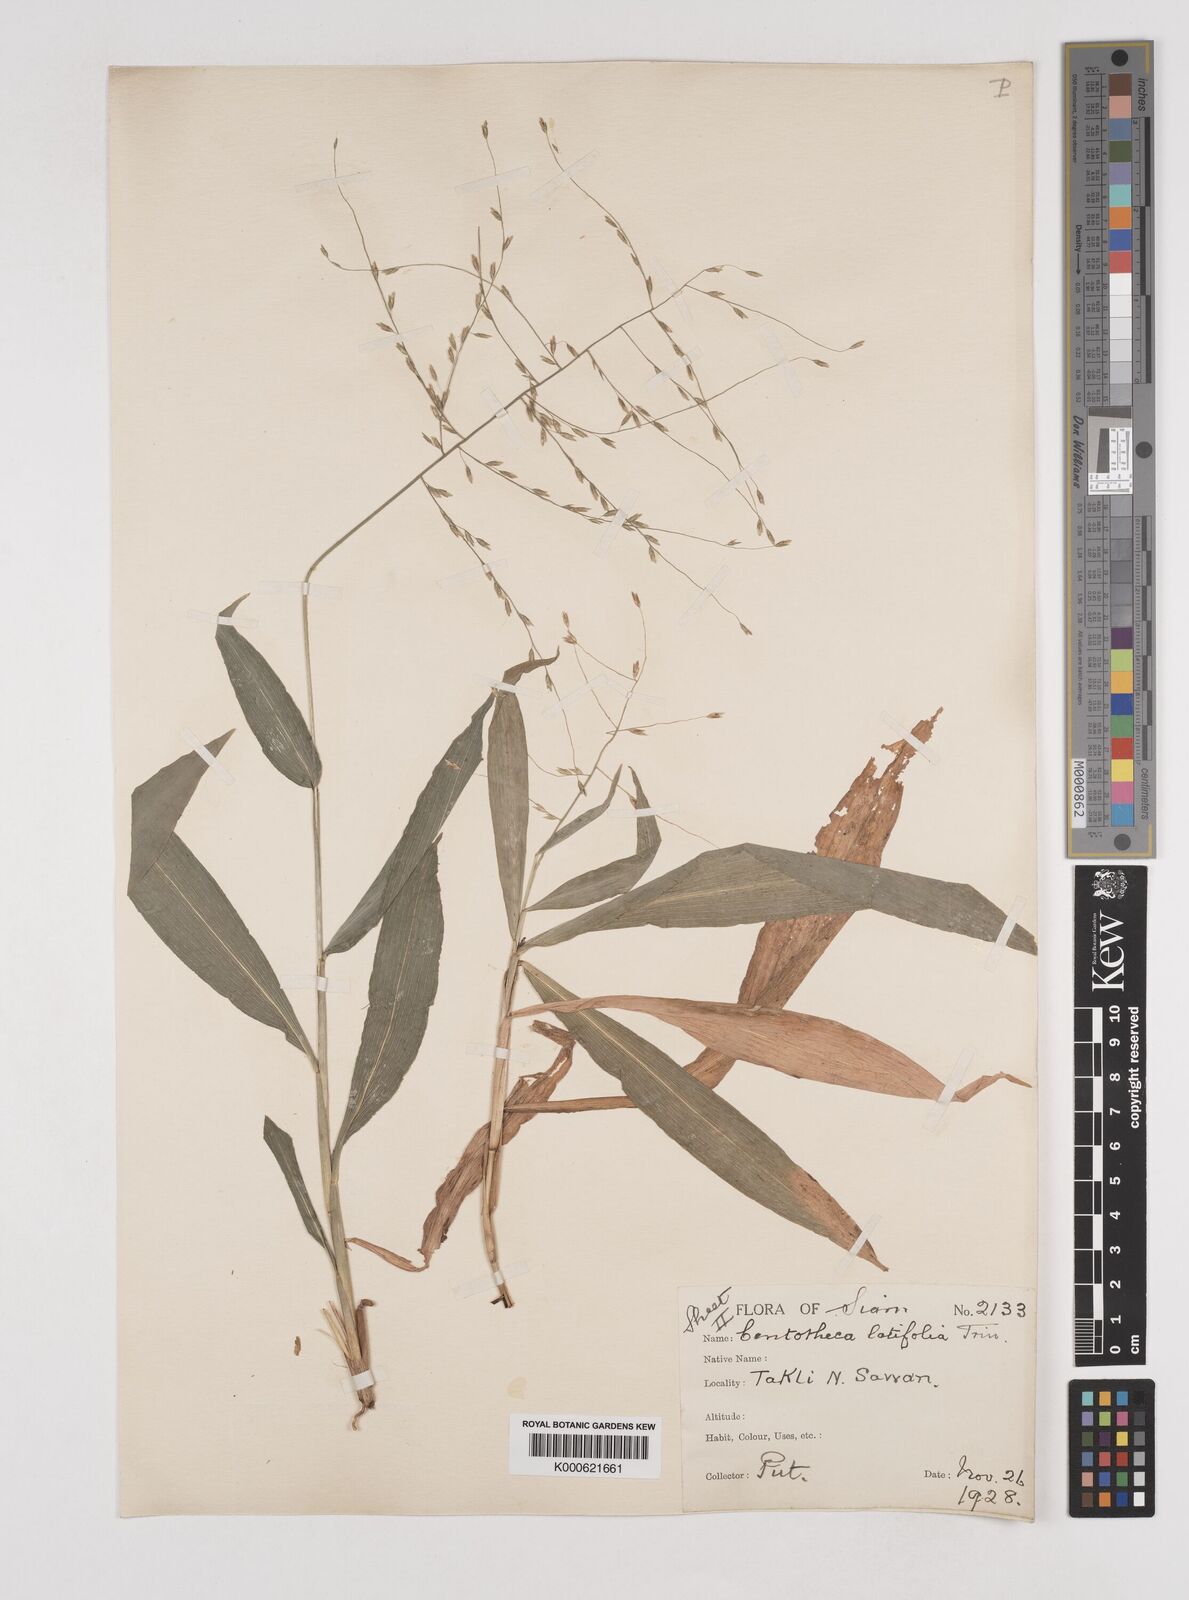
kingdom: Plantae
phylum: Tracheophyta
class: Liliopsida
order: Poales
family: Poaceae
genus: Centotheca
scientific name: Centotheca lappacea
